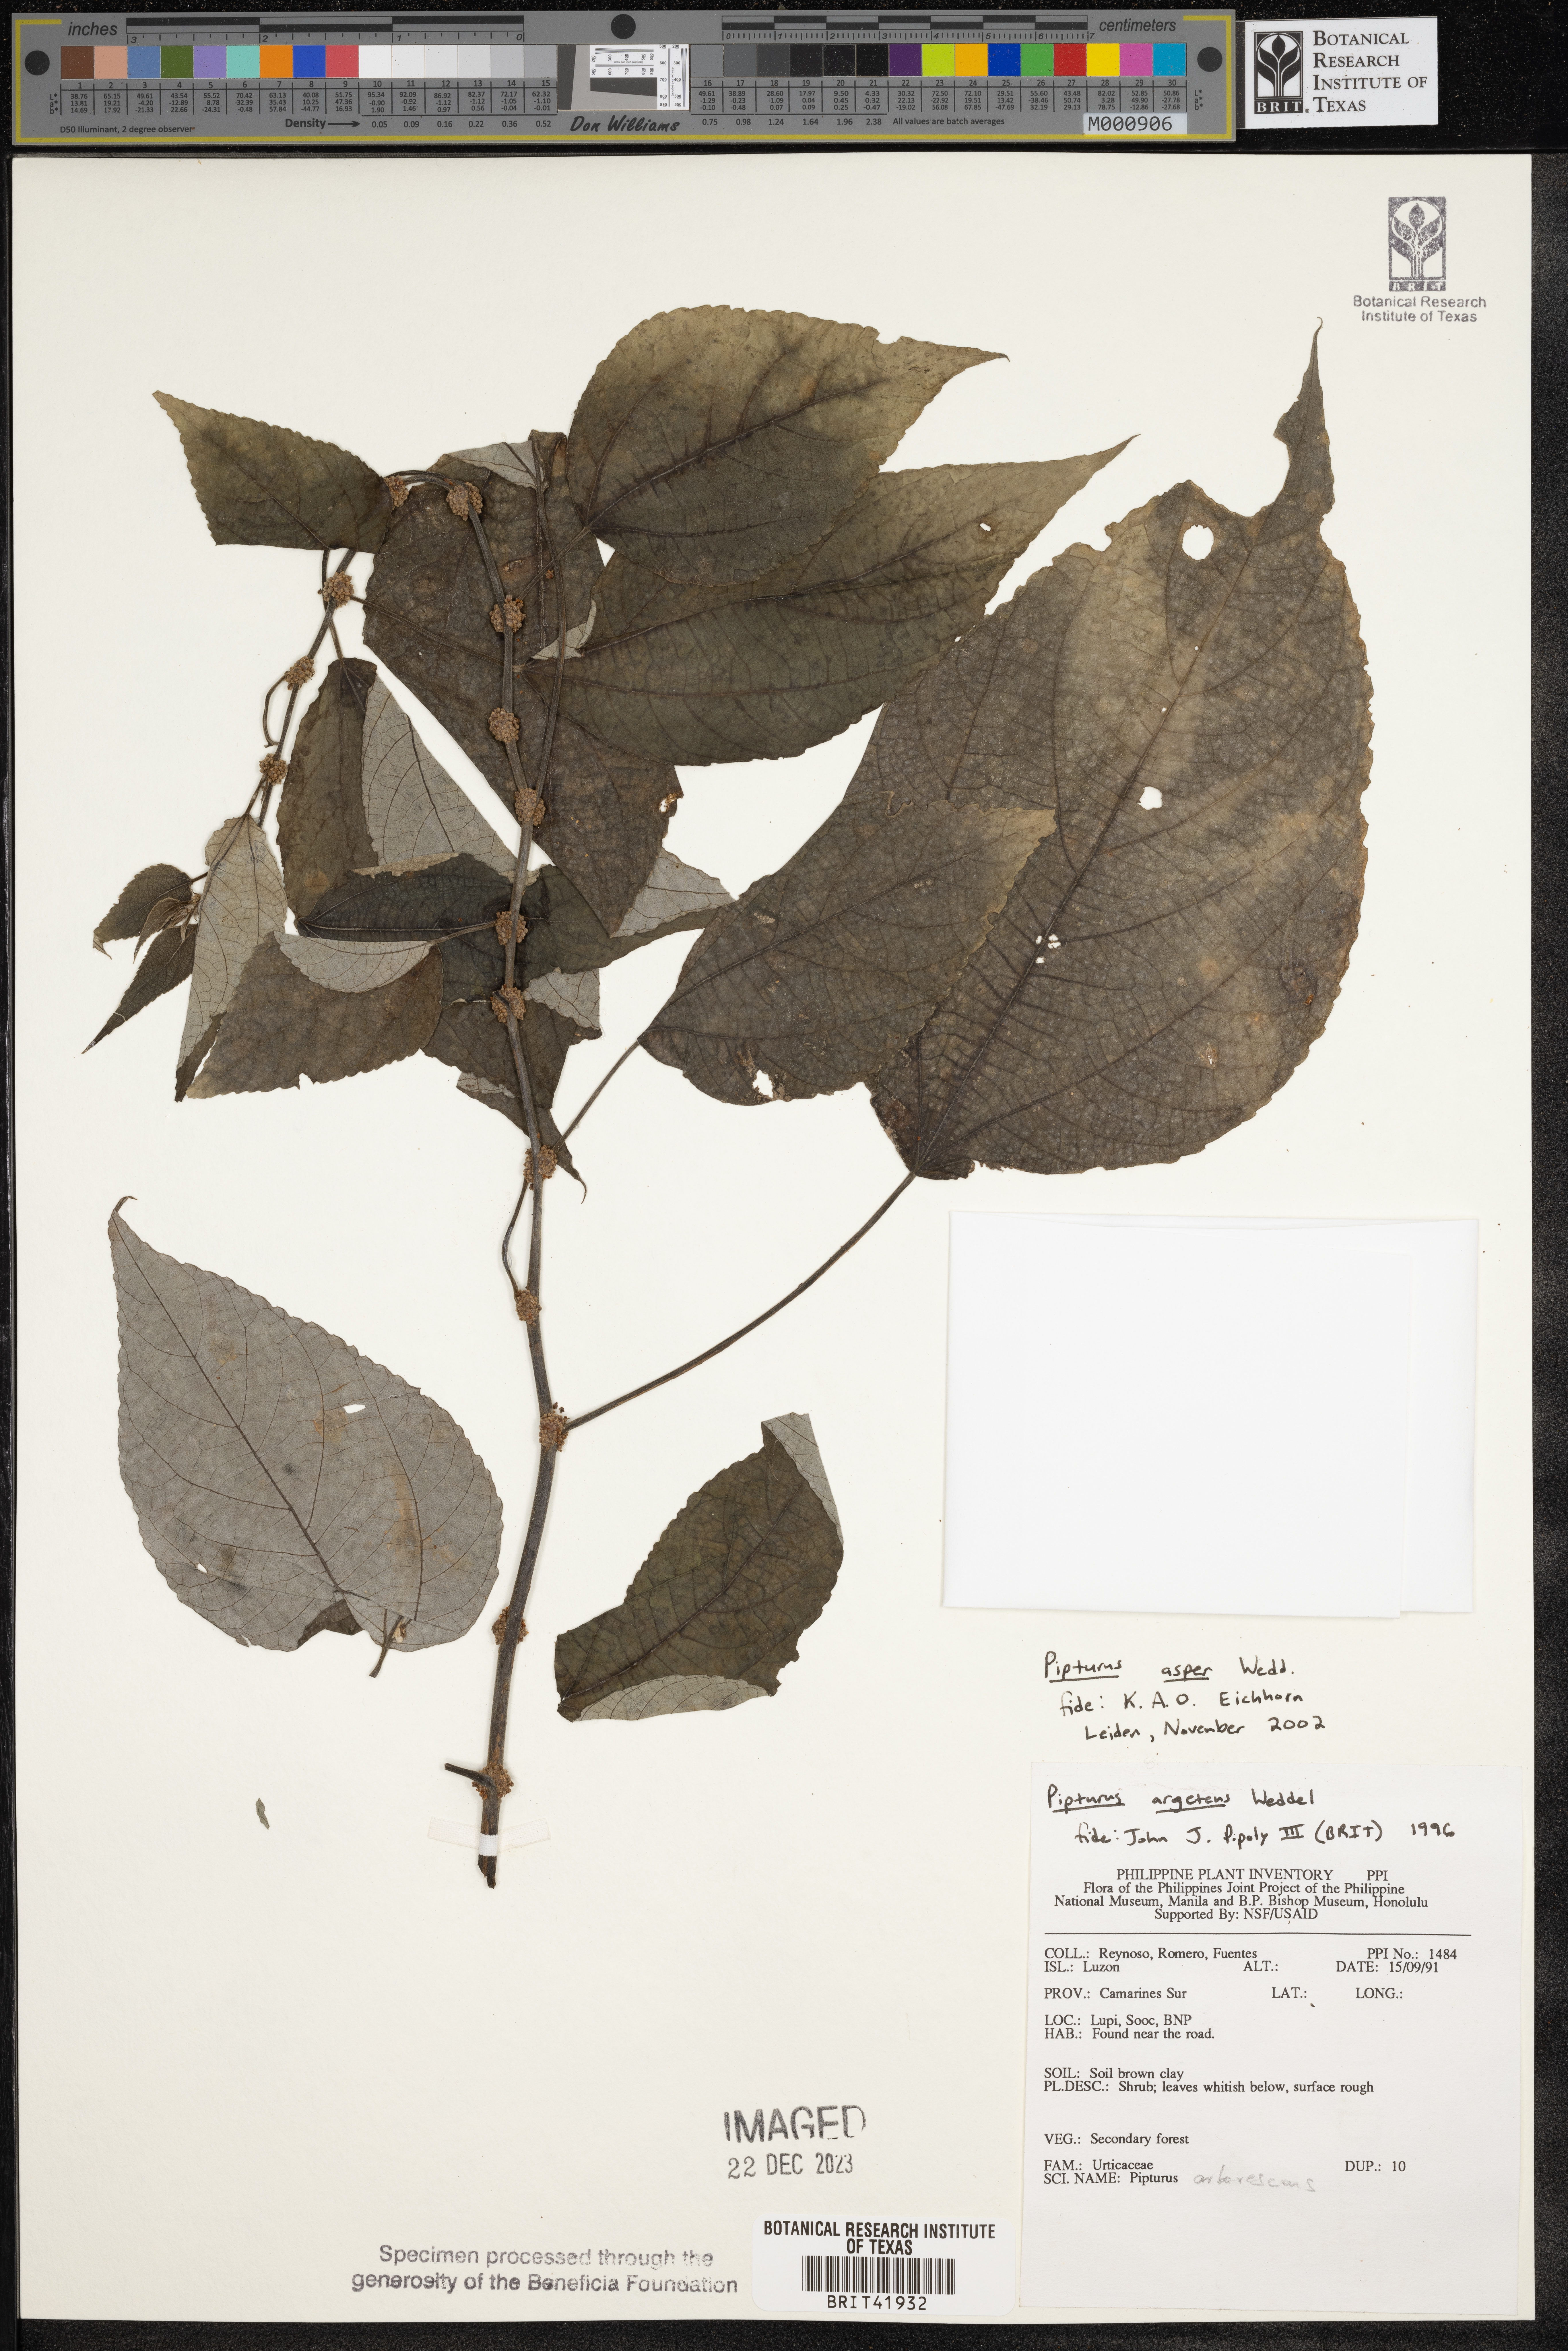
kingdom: Plantae
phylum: Tracheophyta
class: Magnoliopsida
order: Rosales
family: Urticaceae
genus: Pipturus
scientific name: Pipturus arborescens
